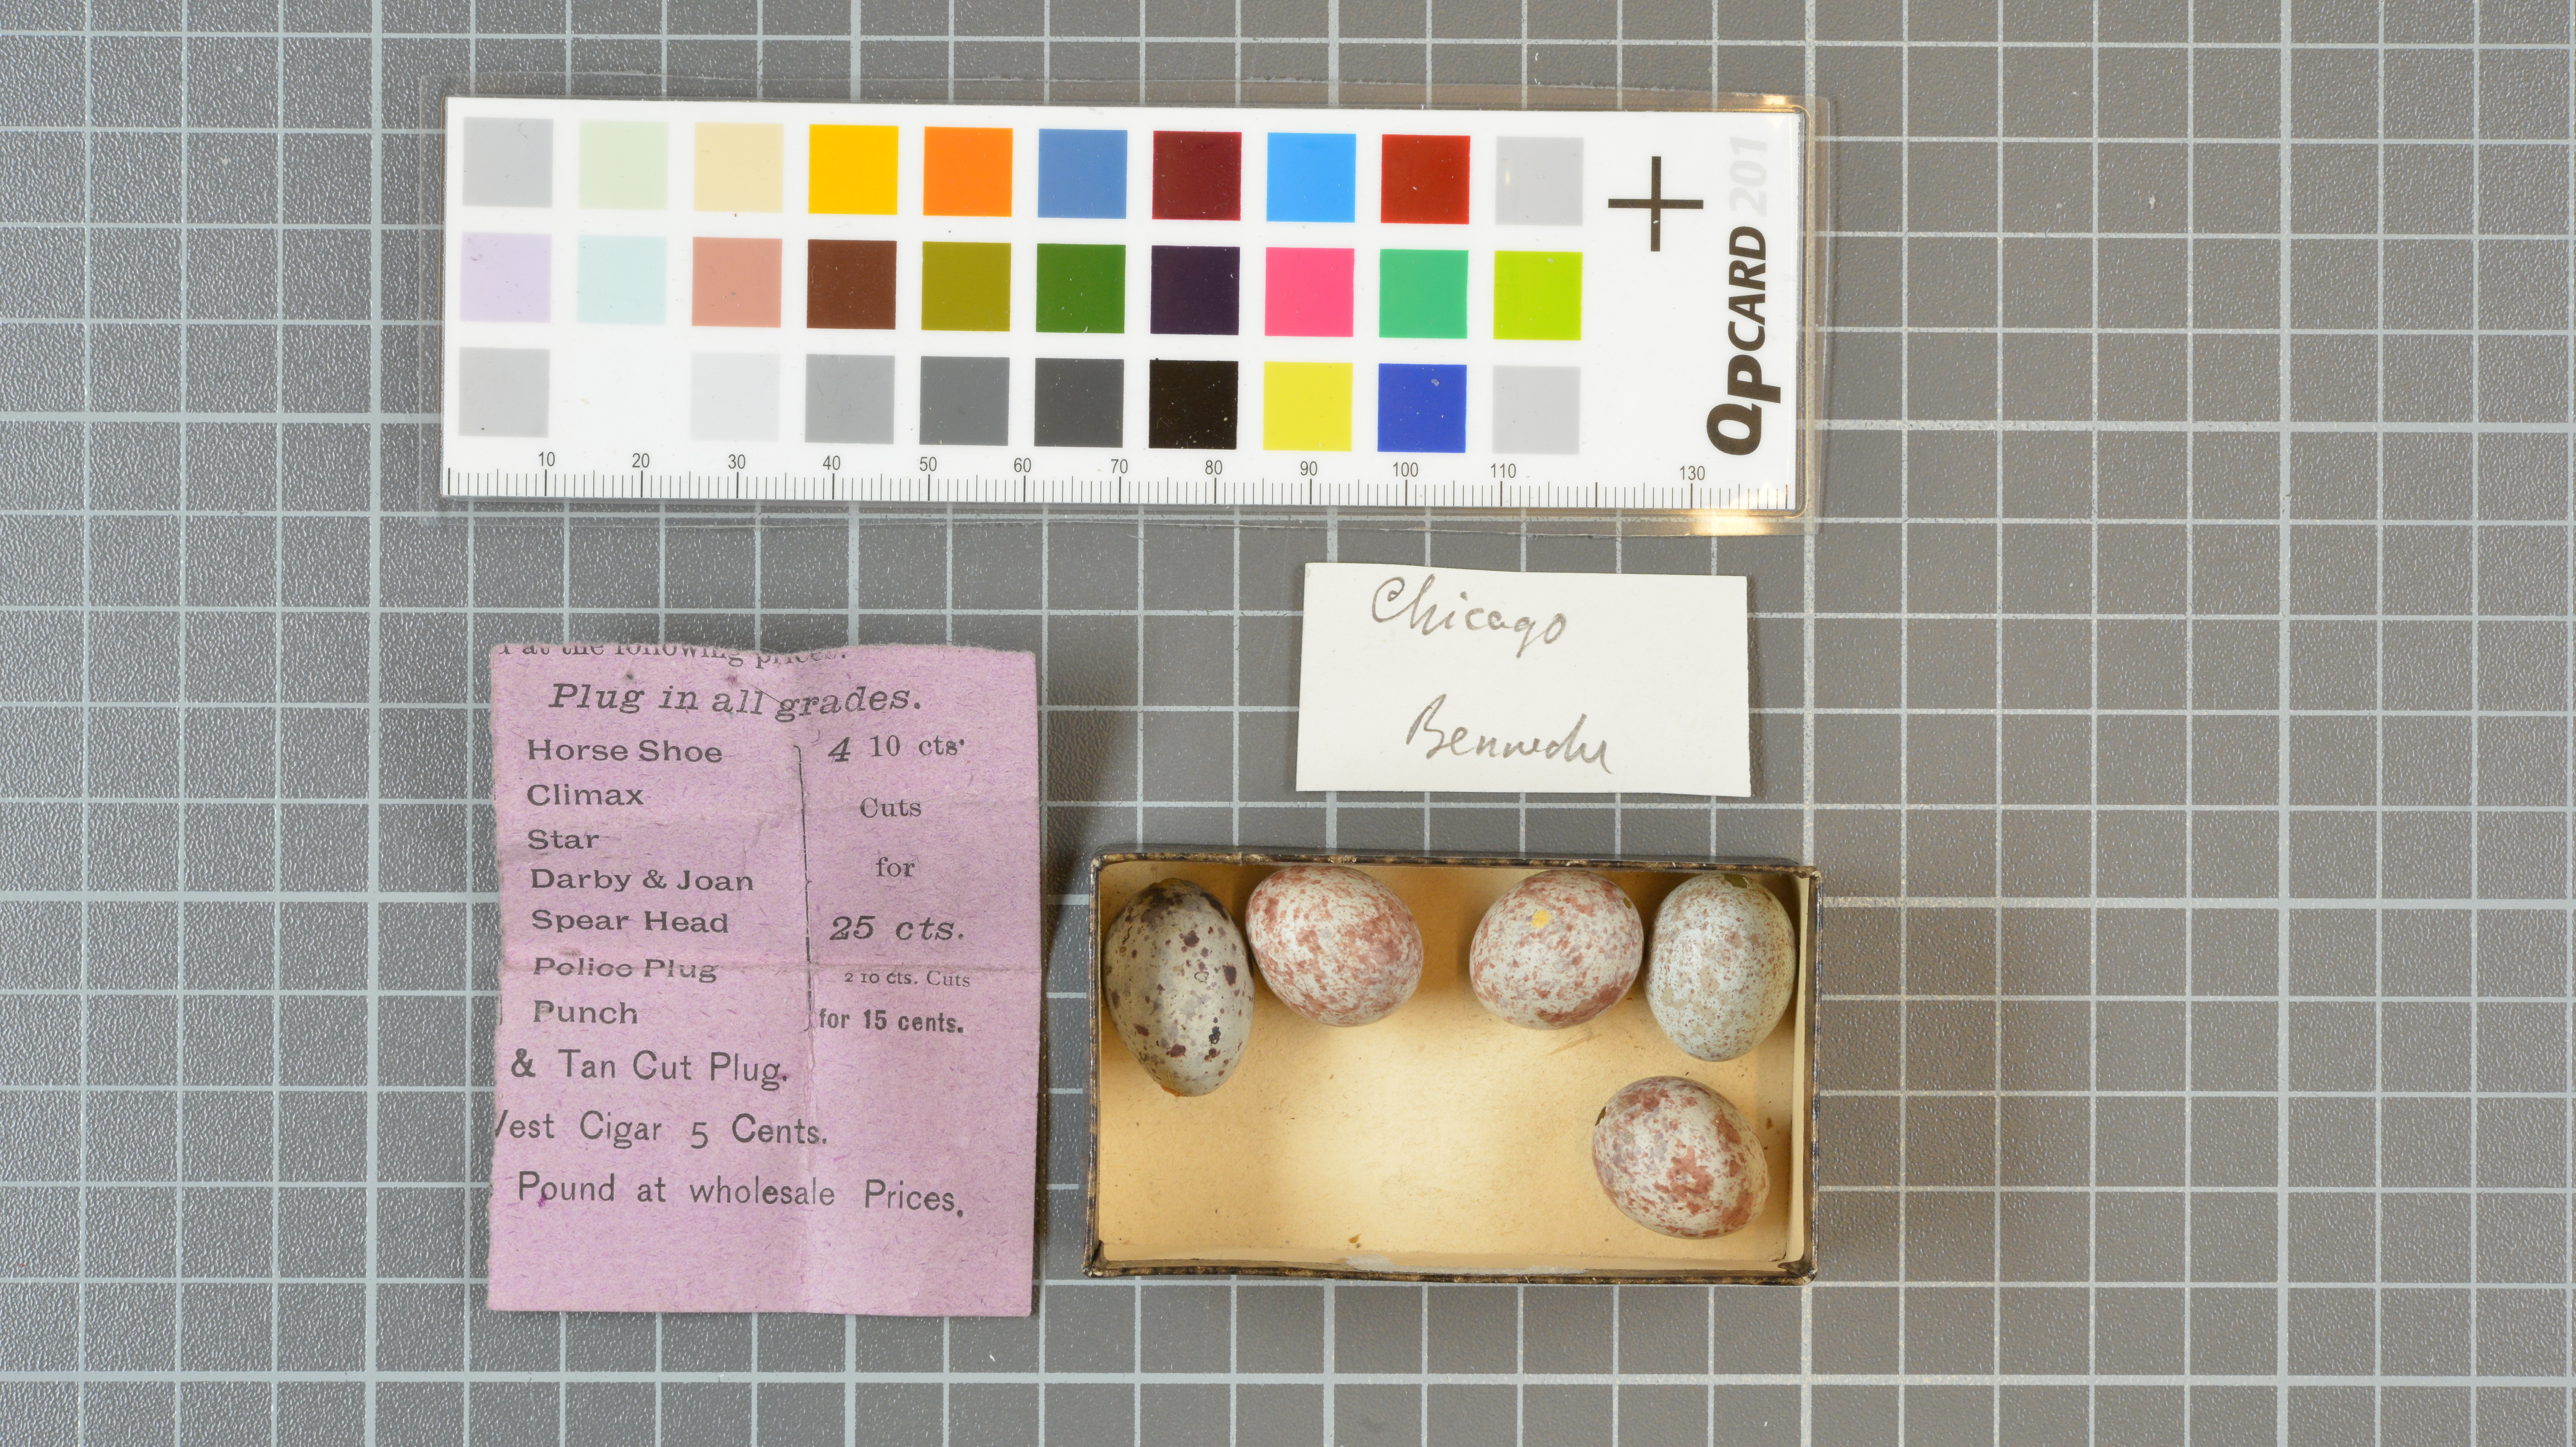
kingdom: Animalia
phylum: Chordata
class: Aves
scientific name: Aves
